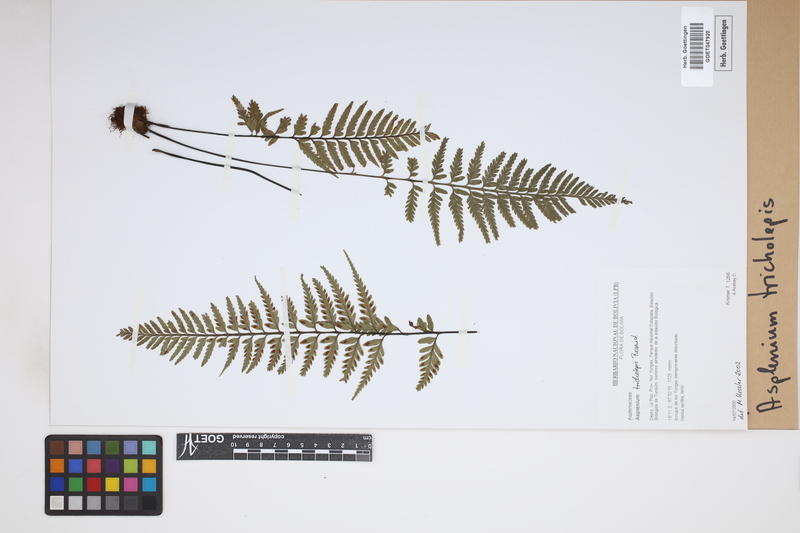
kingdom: Plantae
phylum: Tracheophyta
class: Polypodiopsida
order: Polypodiales
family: Aspleniaceae
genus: Asplenium
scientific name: Asplenium tricholepis
